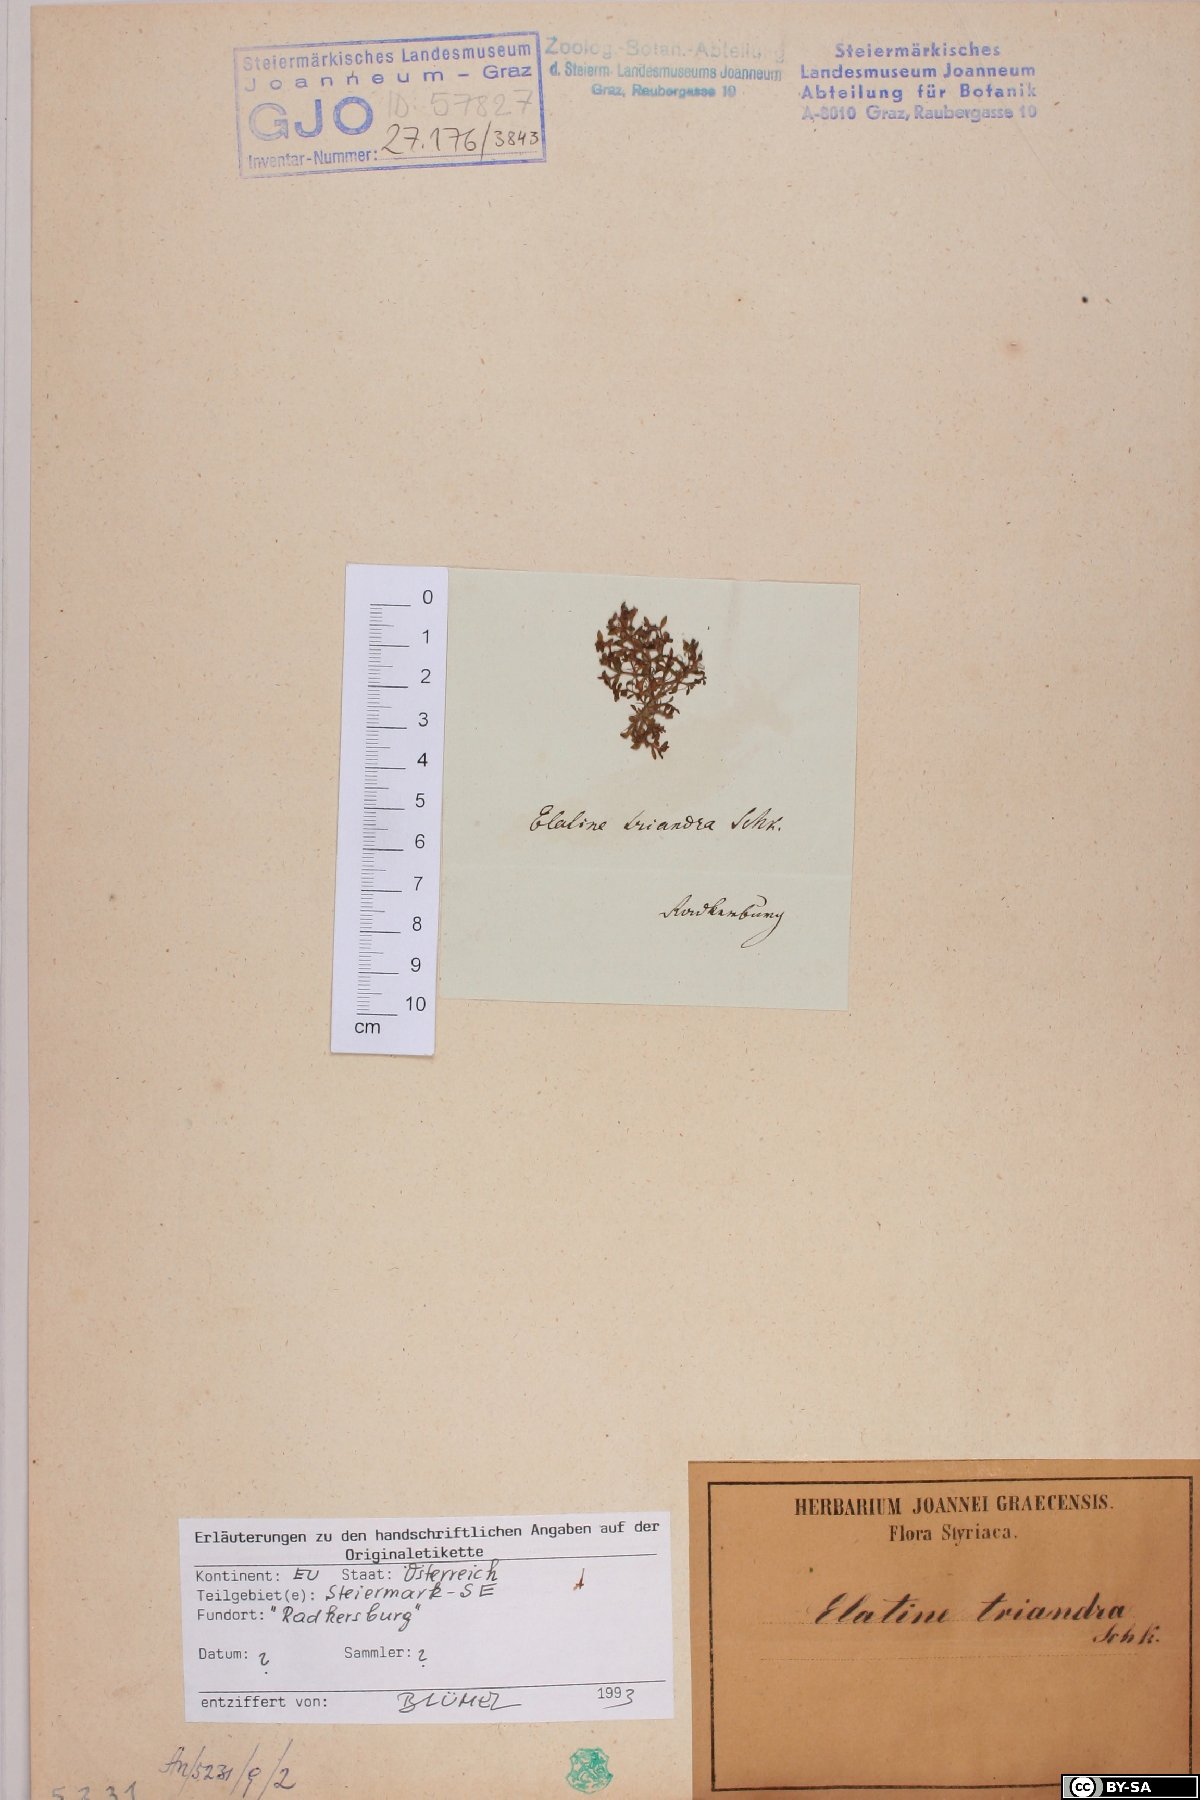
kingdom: Plantae
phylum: Tracheophyta
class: Magnoliopsida
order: Malpighiales
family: Elatinaceae
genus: Elatine
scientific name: Elatine triandra
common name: Three-stamened waterwort
